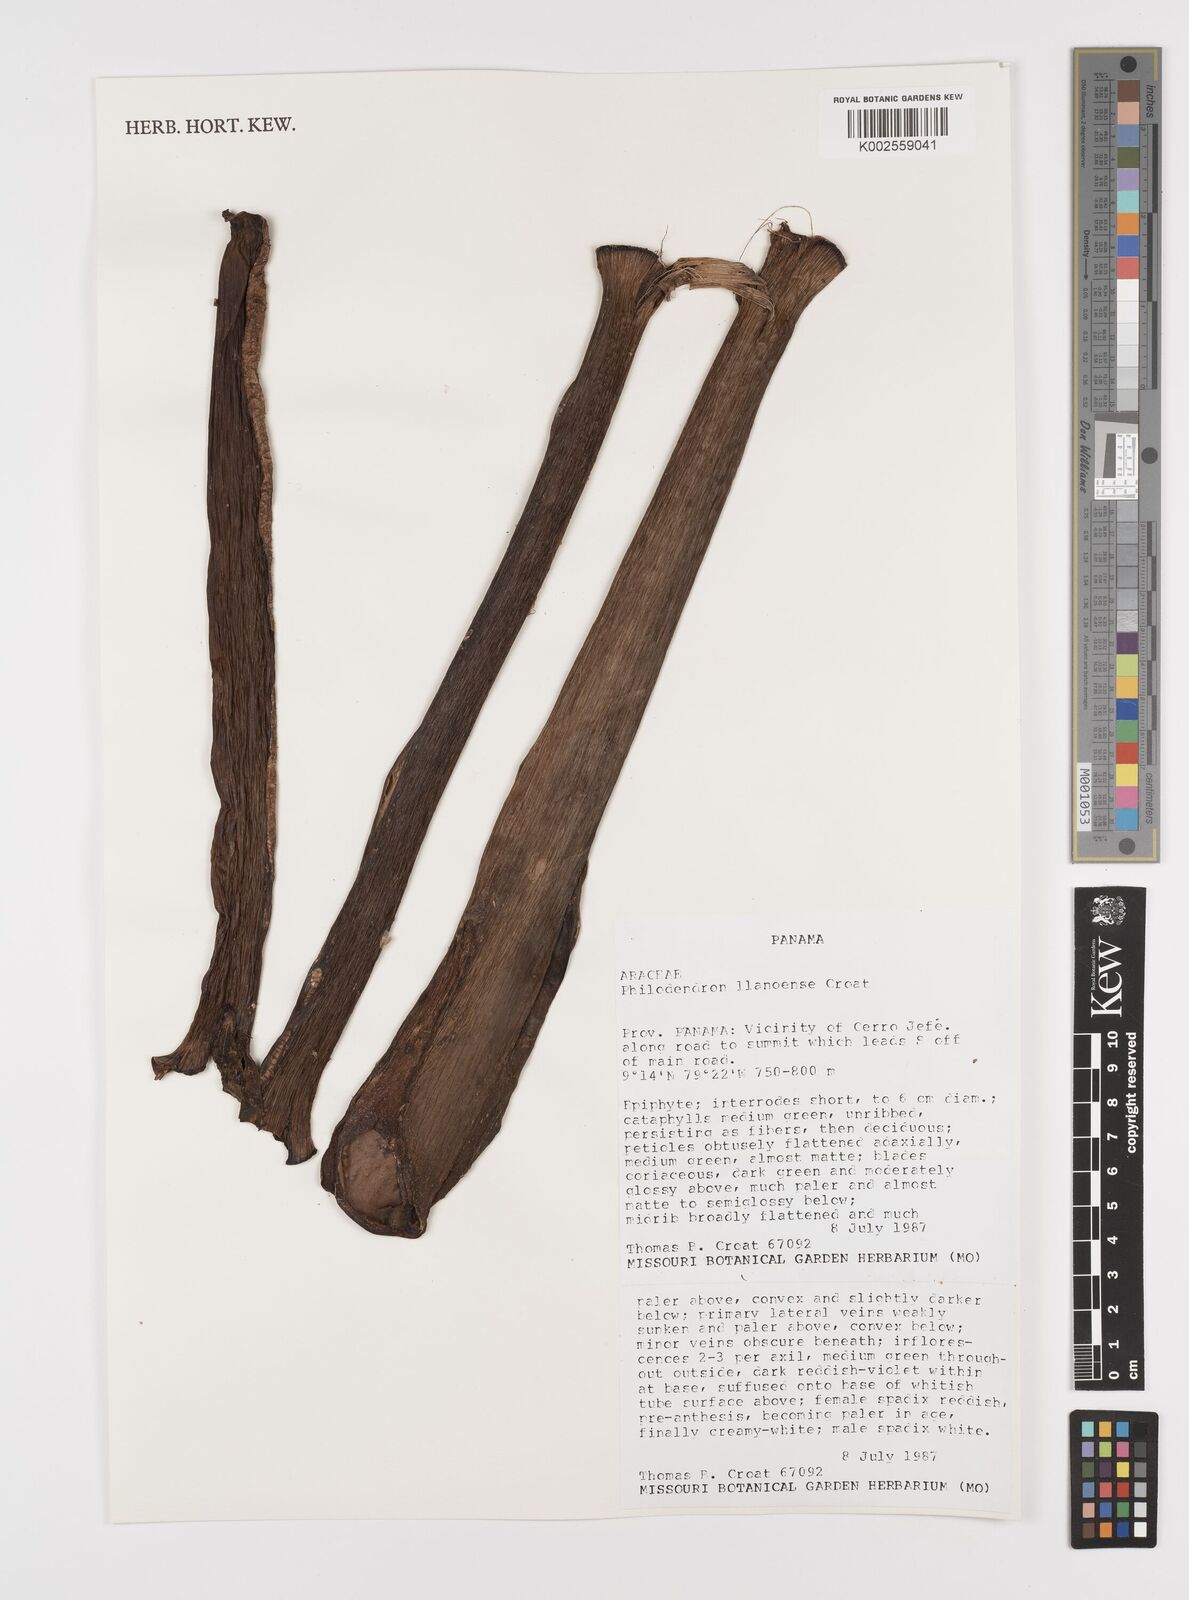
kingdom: Plantae
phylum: Tracheophyta
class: Liliopsida
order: Alismatales
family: Araceae
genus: Philodendron
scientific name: Philodendron llanense
